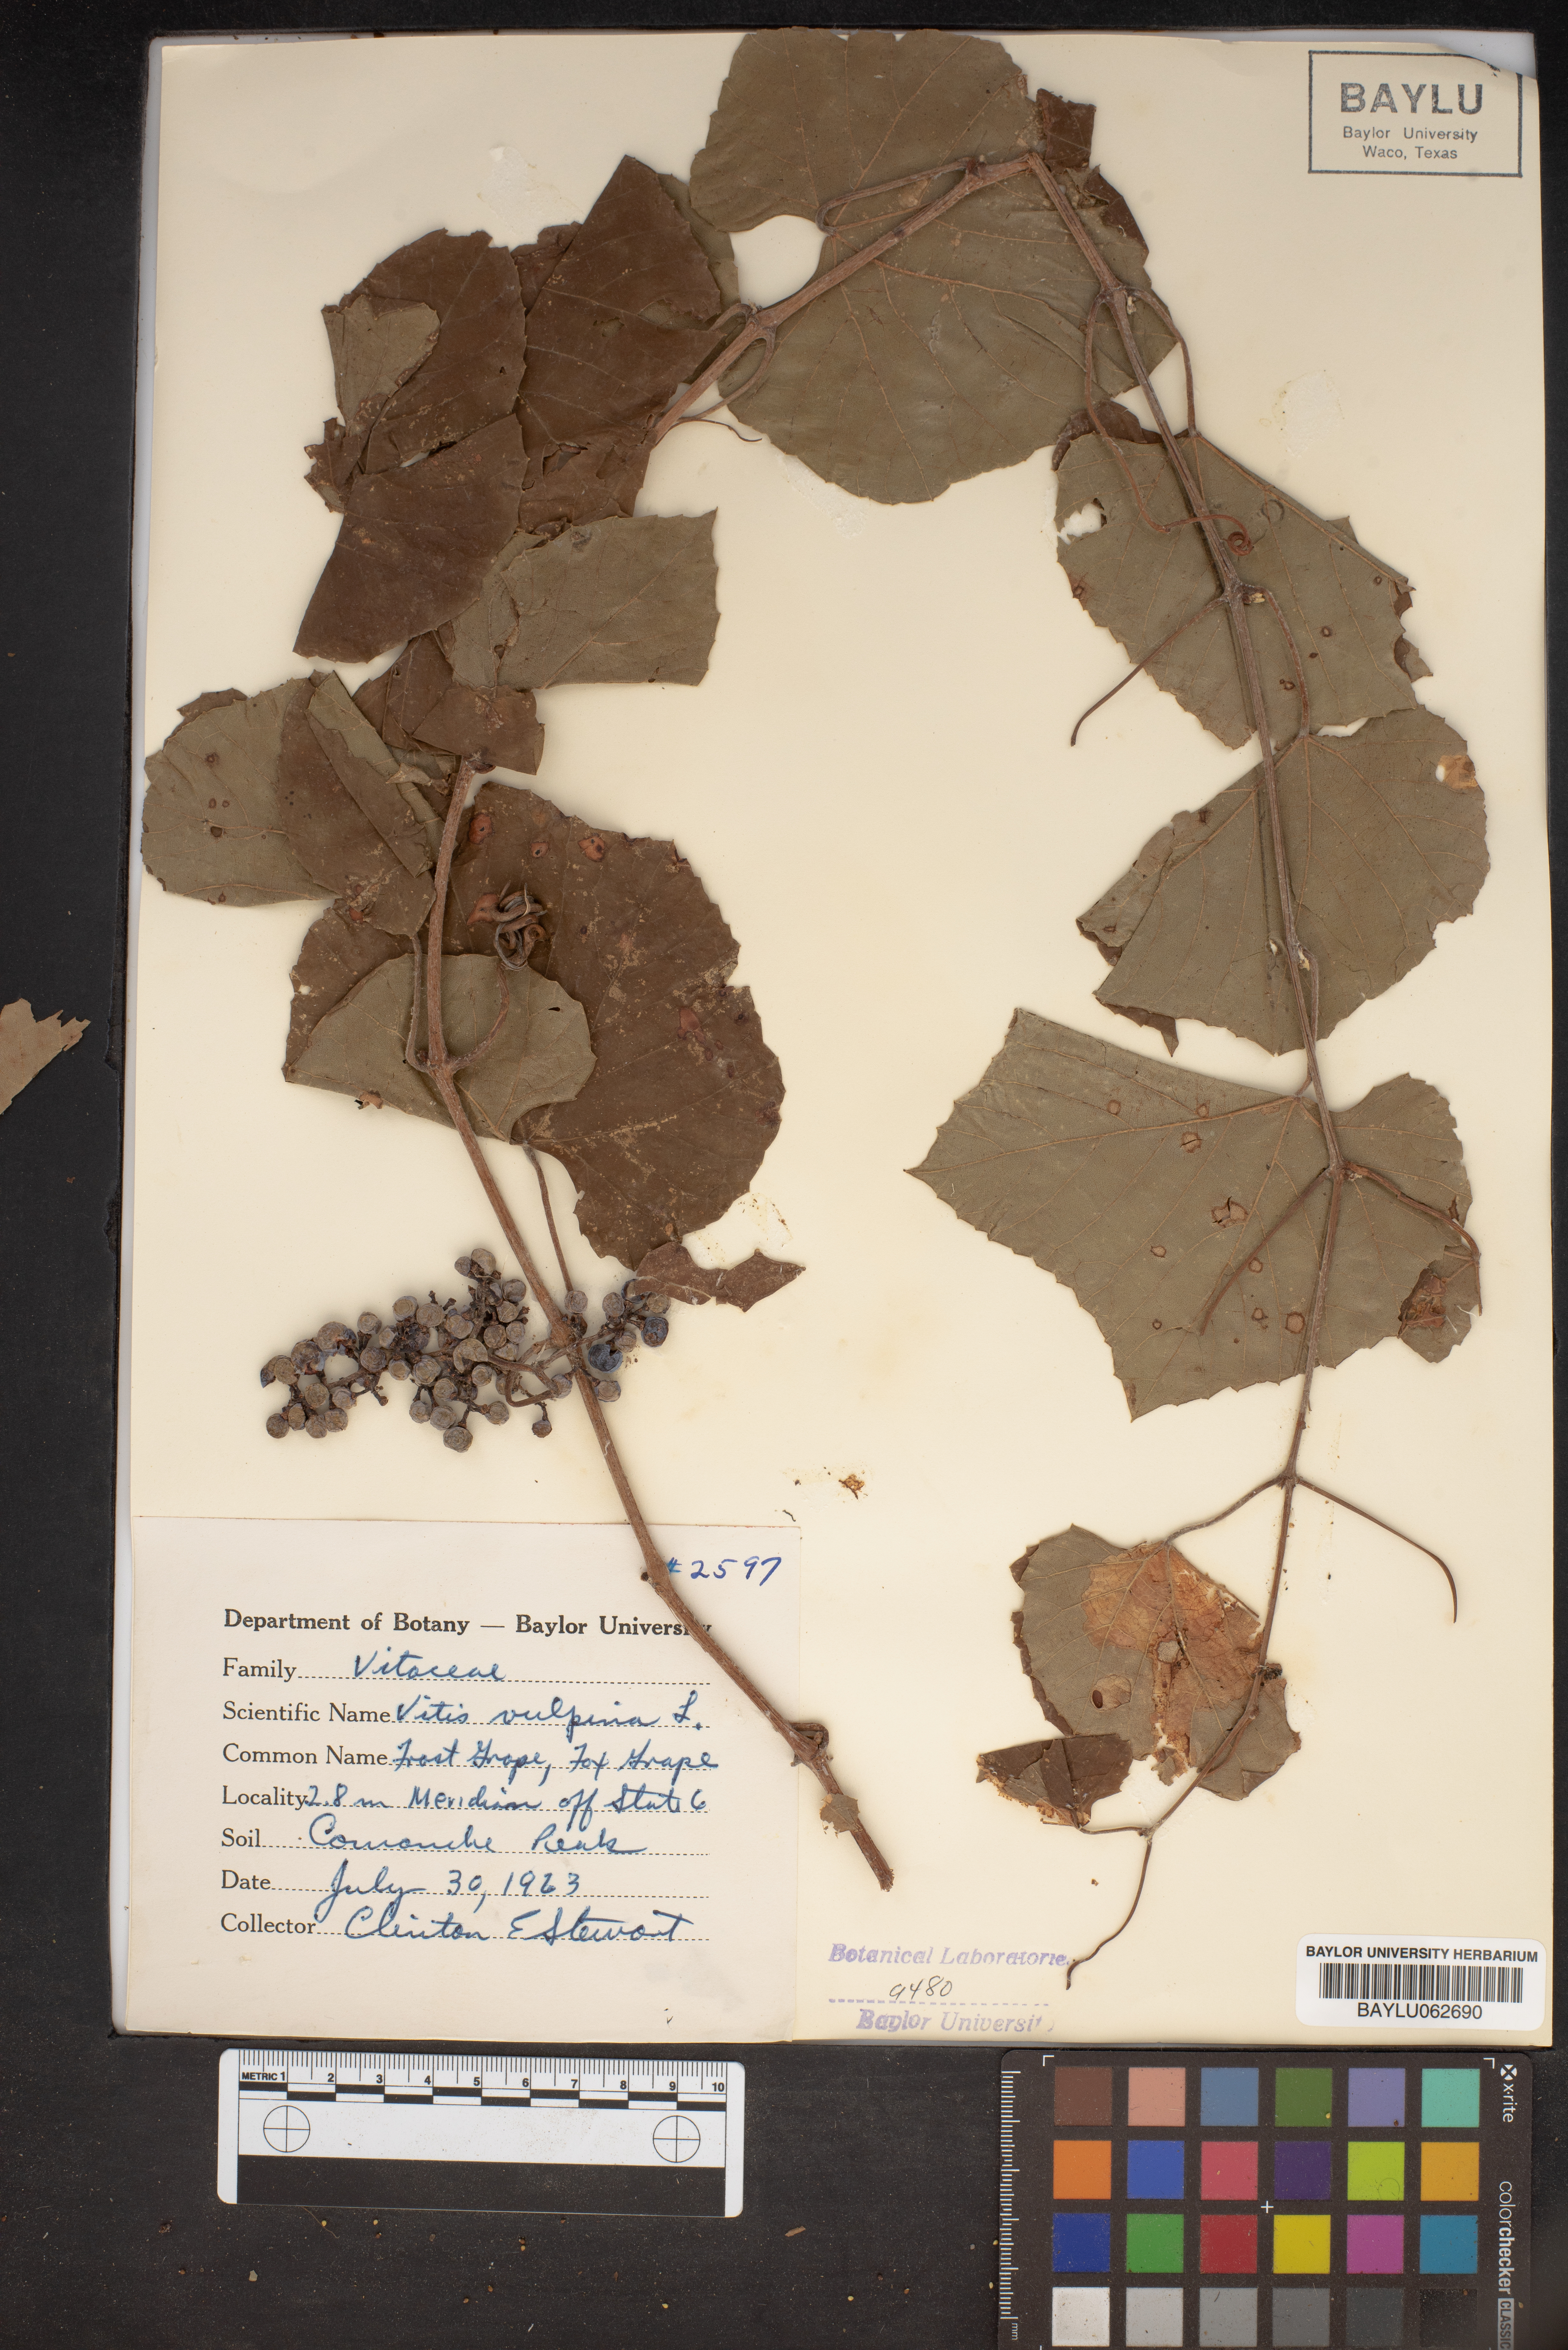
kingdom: Plantae
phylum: Tracheophyta
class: Magnoliopsida
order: Vitales
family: Vitaceae
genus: Vitis
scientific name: Vitis vulpina
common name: Frost grape
